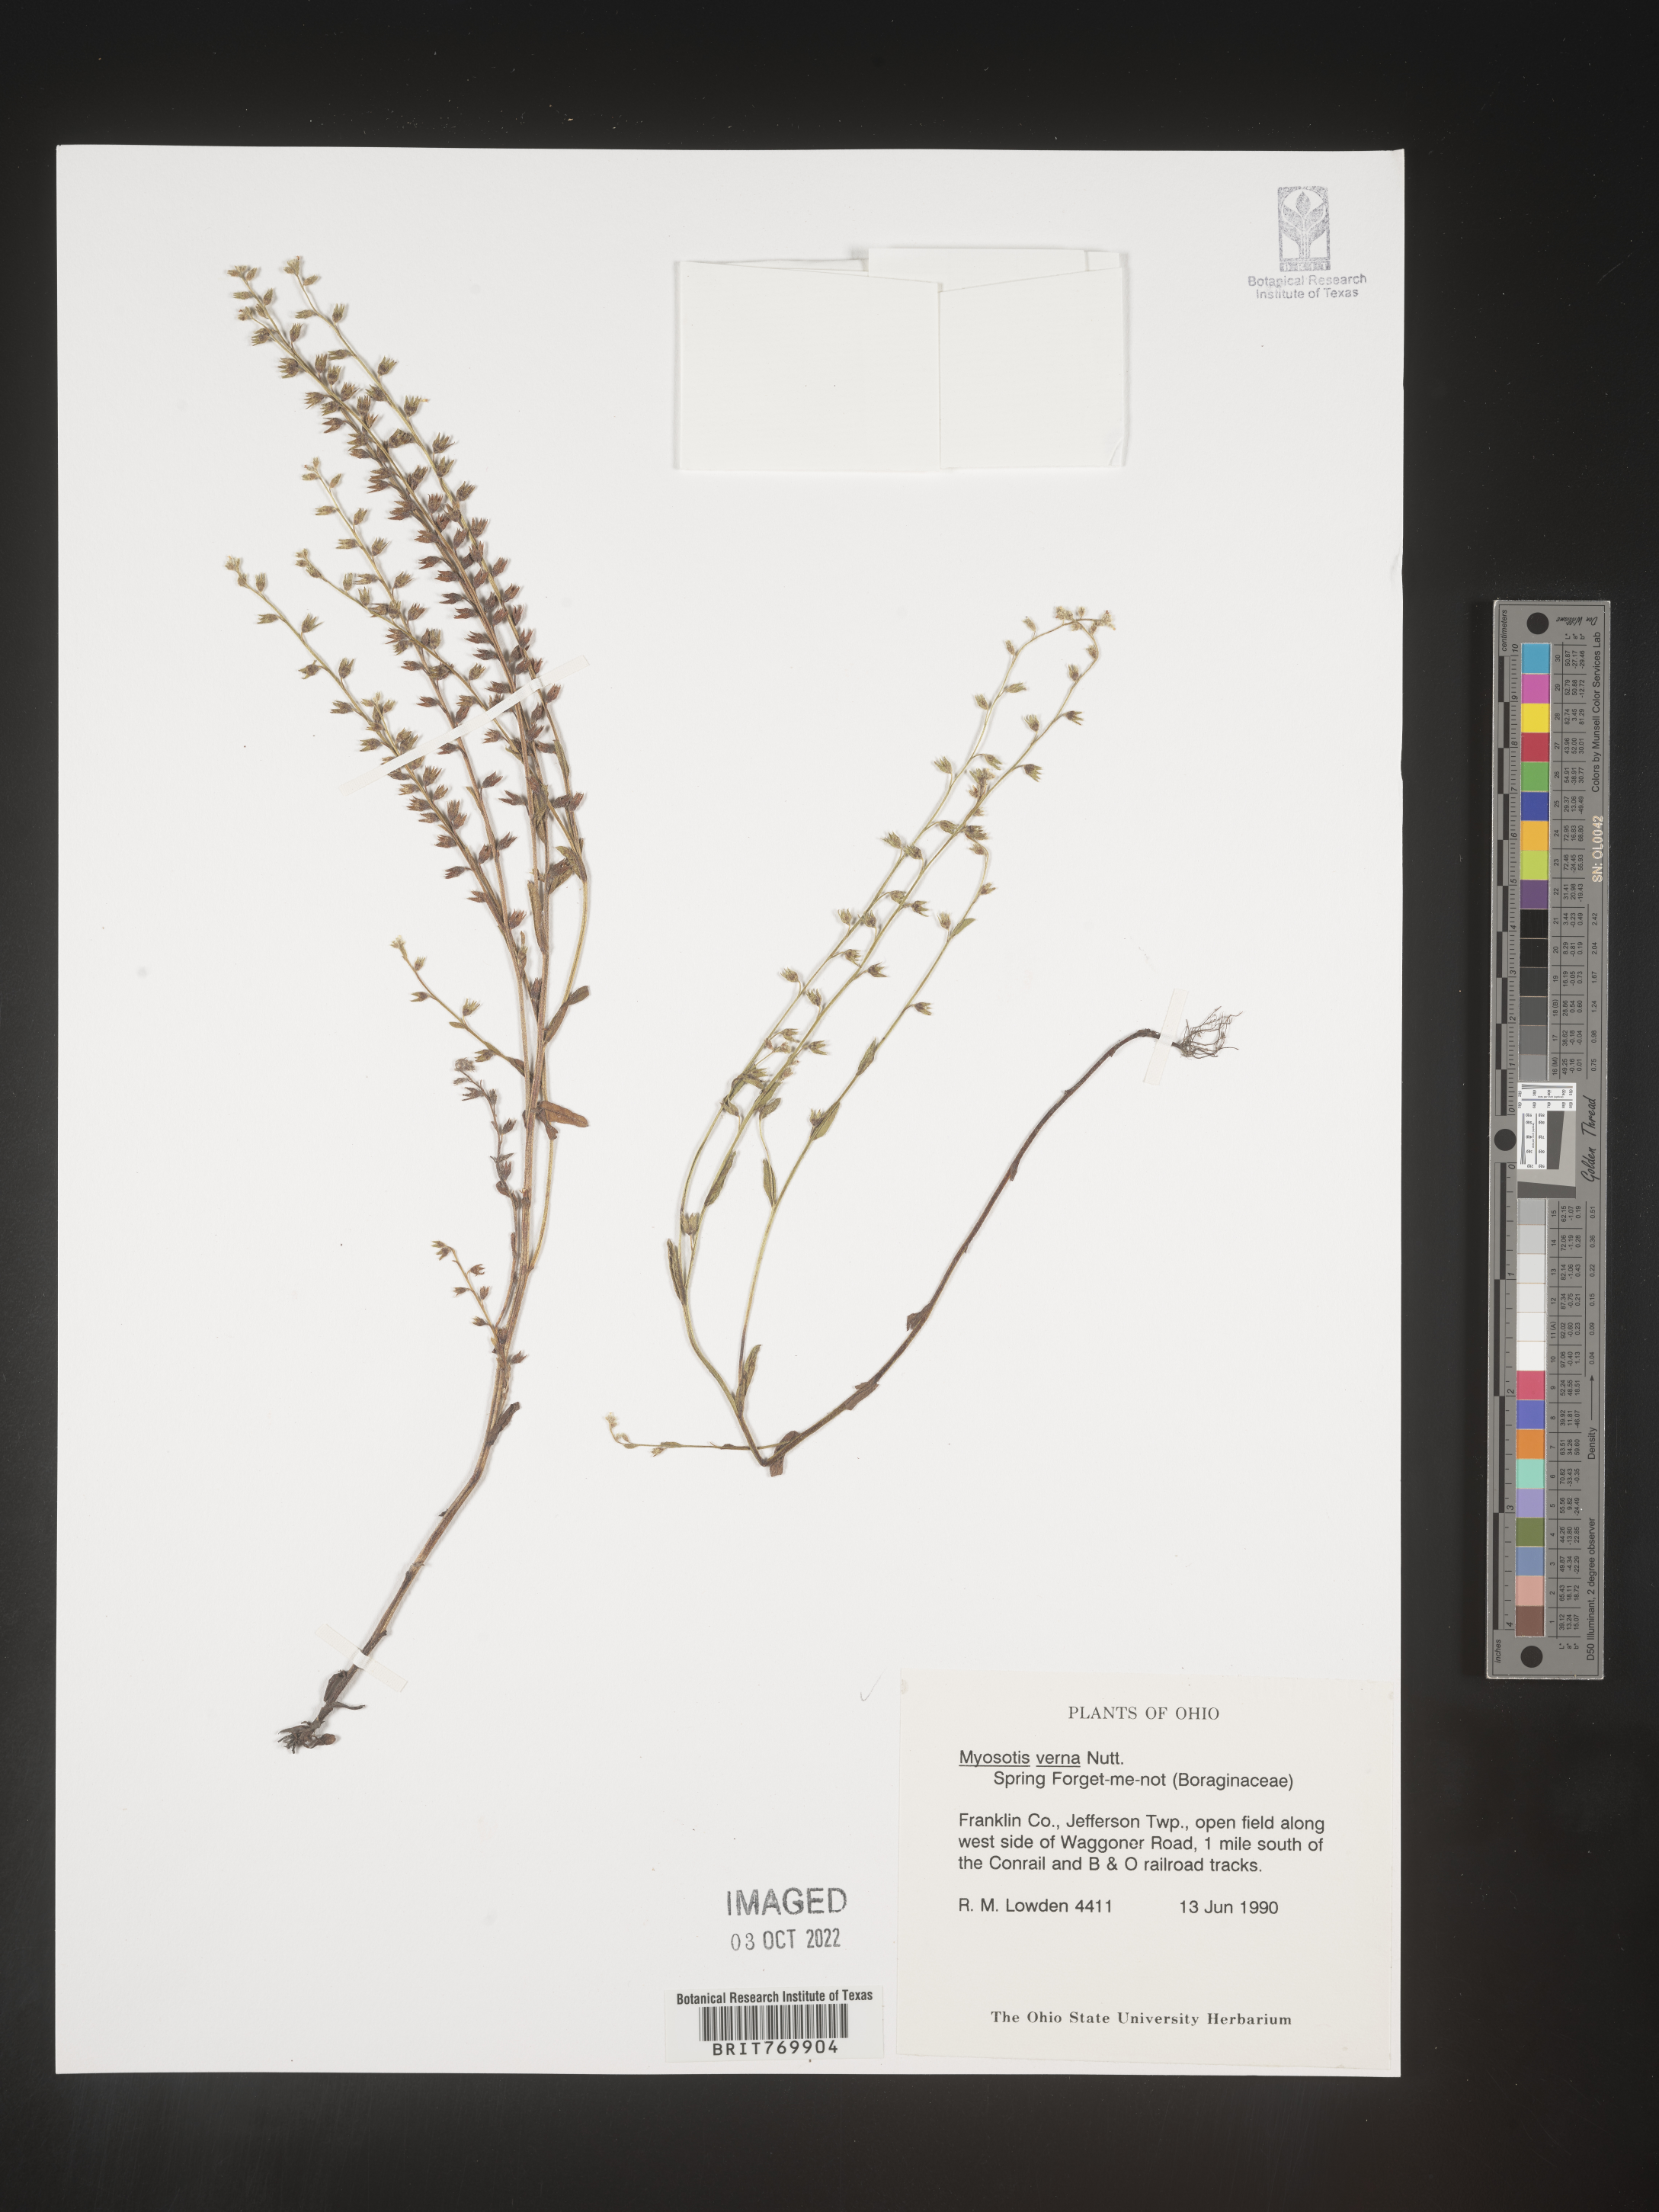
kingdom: Plantae
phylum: Tracheophyta
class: Magnoliopsida
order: Boraginales
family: Boraginaceae
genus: Myosotis
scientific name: Myosotis verna
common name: Early forget-me-not
